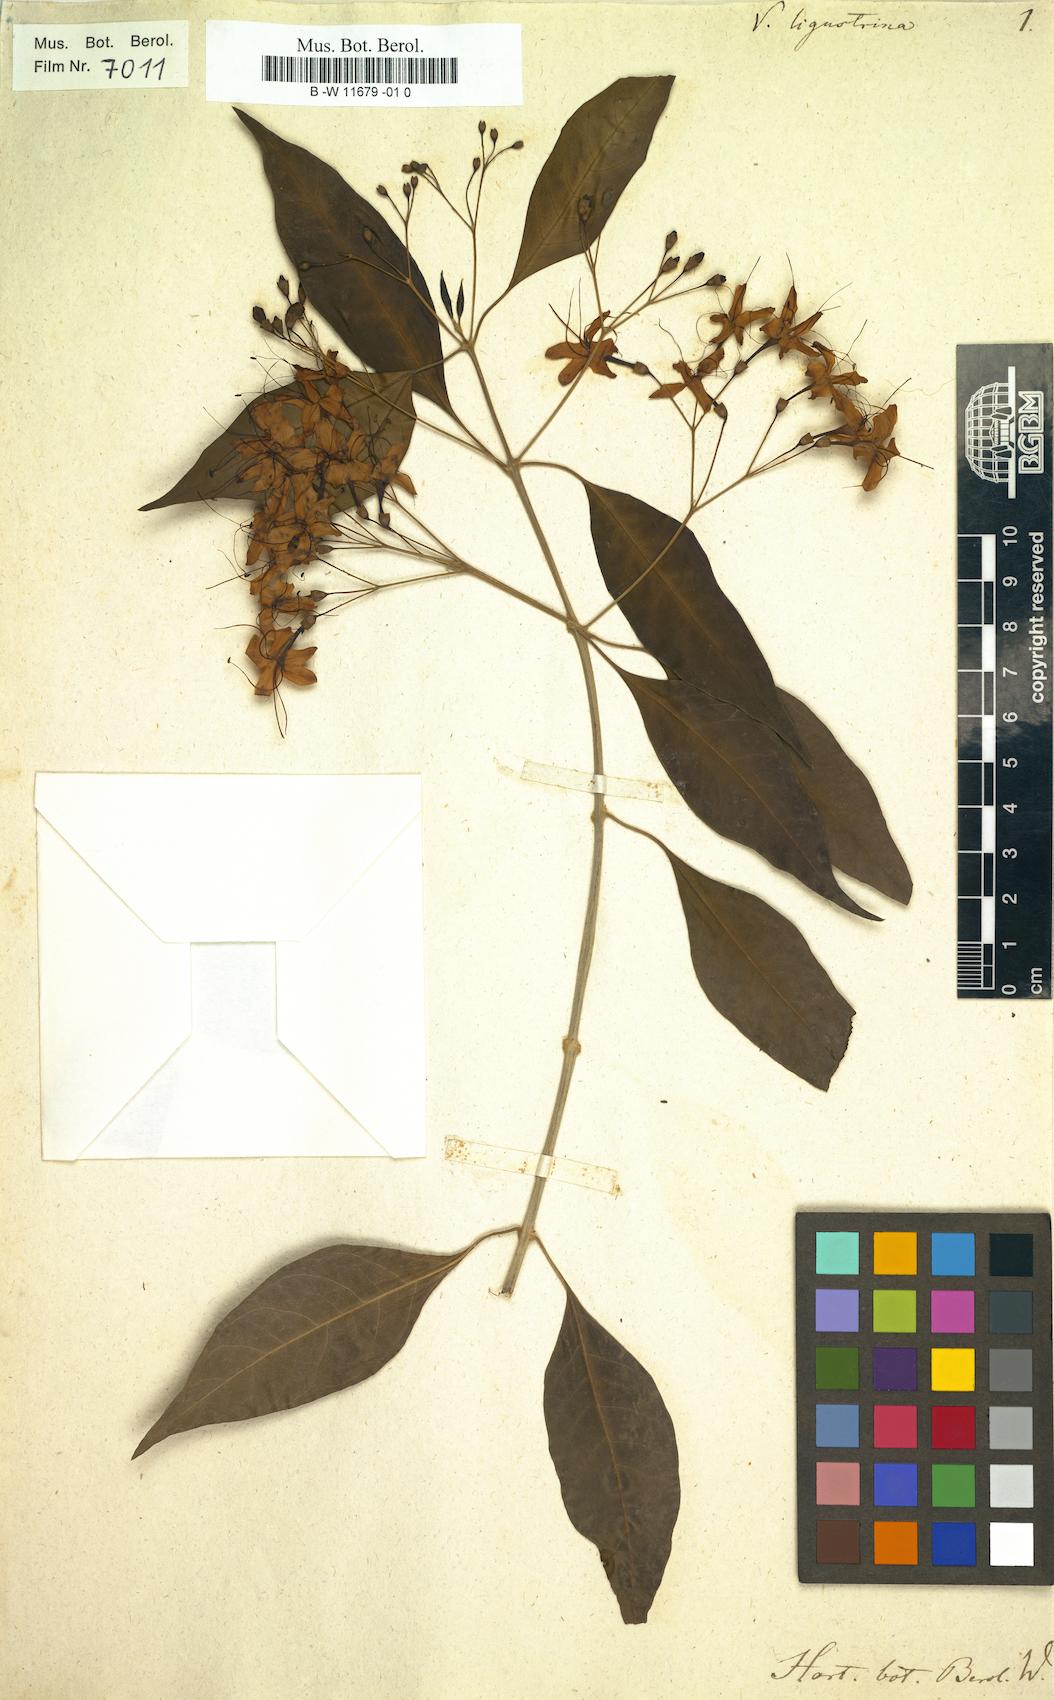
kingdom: Plantae
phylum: Tracheophyta
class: Magnoliopsida
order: Lamiales
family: Lamiaceae
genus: Volkameria
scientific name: Volkameria ligustrina
